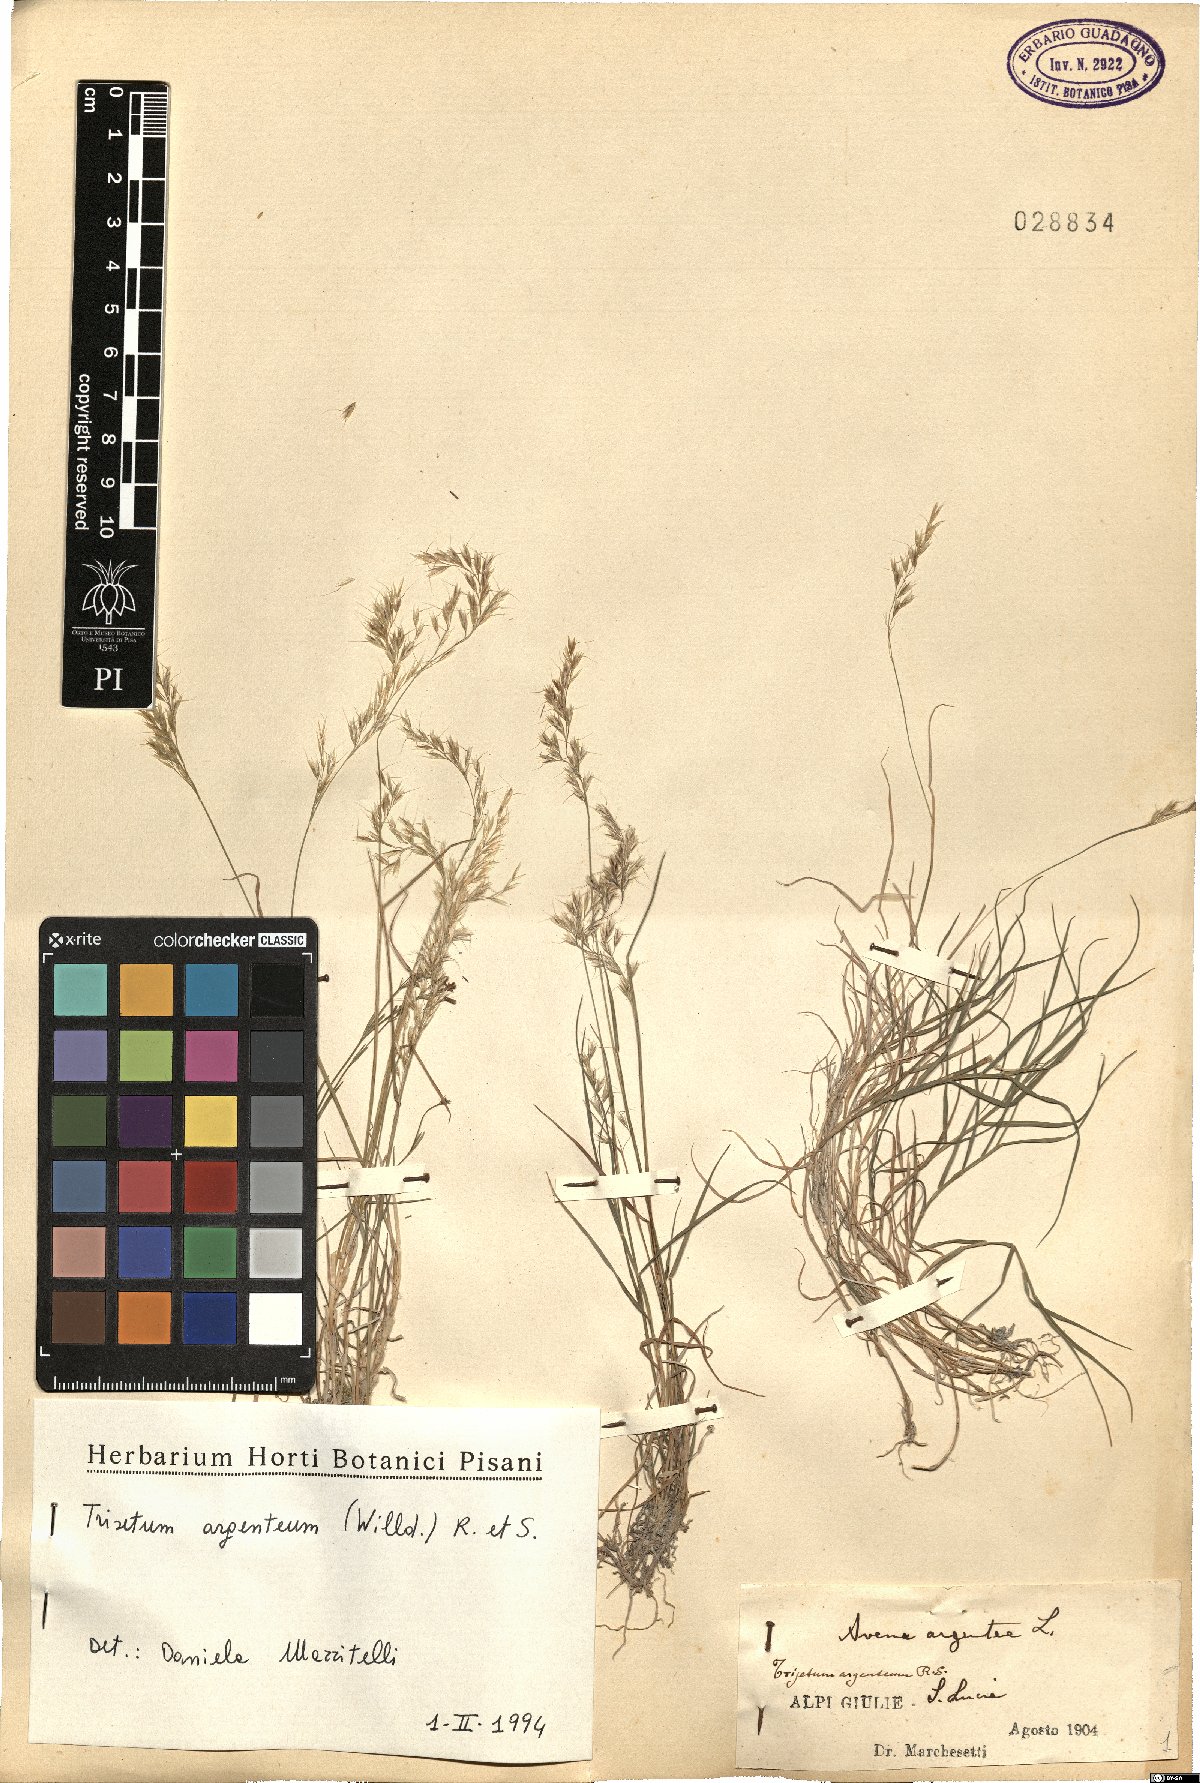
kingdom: Plantae
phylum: Tracheophyta
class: Liliopsida
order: Poales
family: Poaceae
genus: Trisetum
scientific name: Trisetum argenteum
